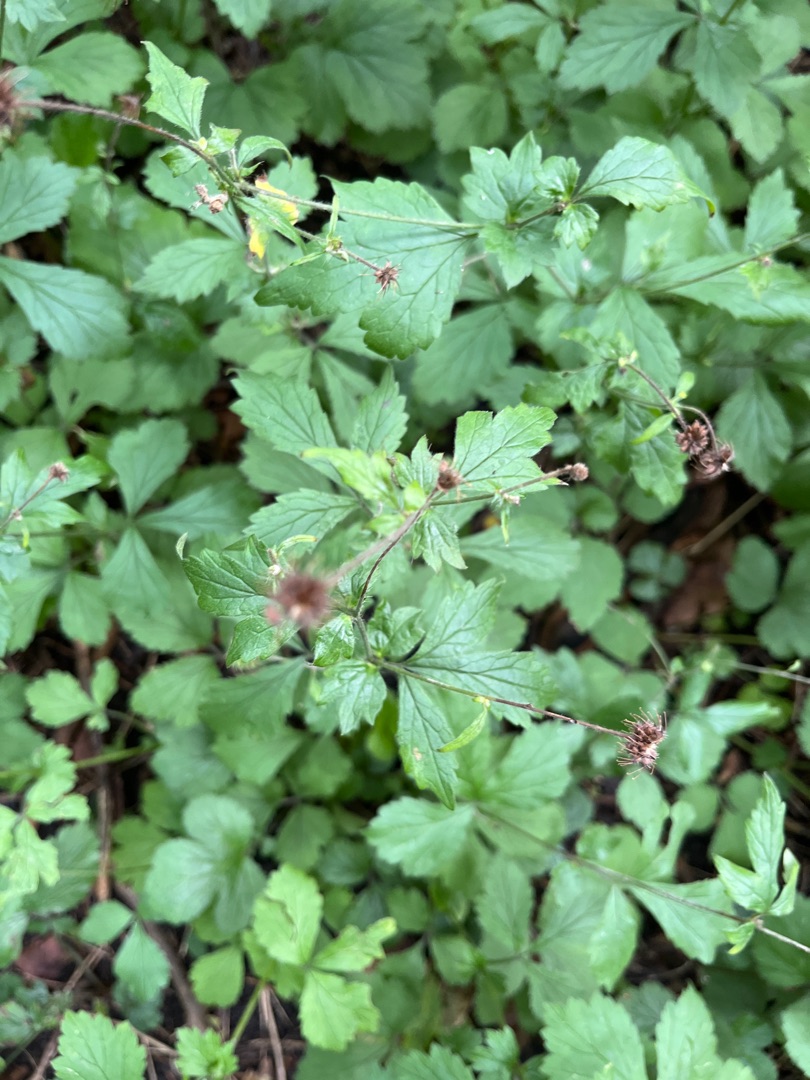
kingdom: Plantae
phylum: Tracheophyta
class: Magnoliopsida
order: Rosales
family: Rosaceae
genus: Geum
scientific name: Geum urbanum
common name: Feber-nellikerod
